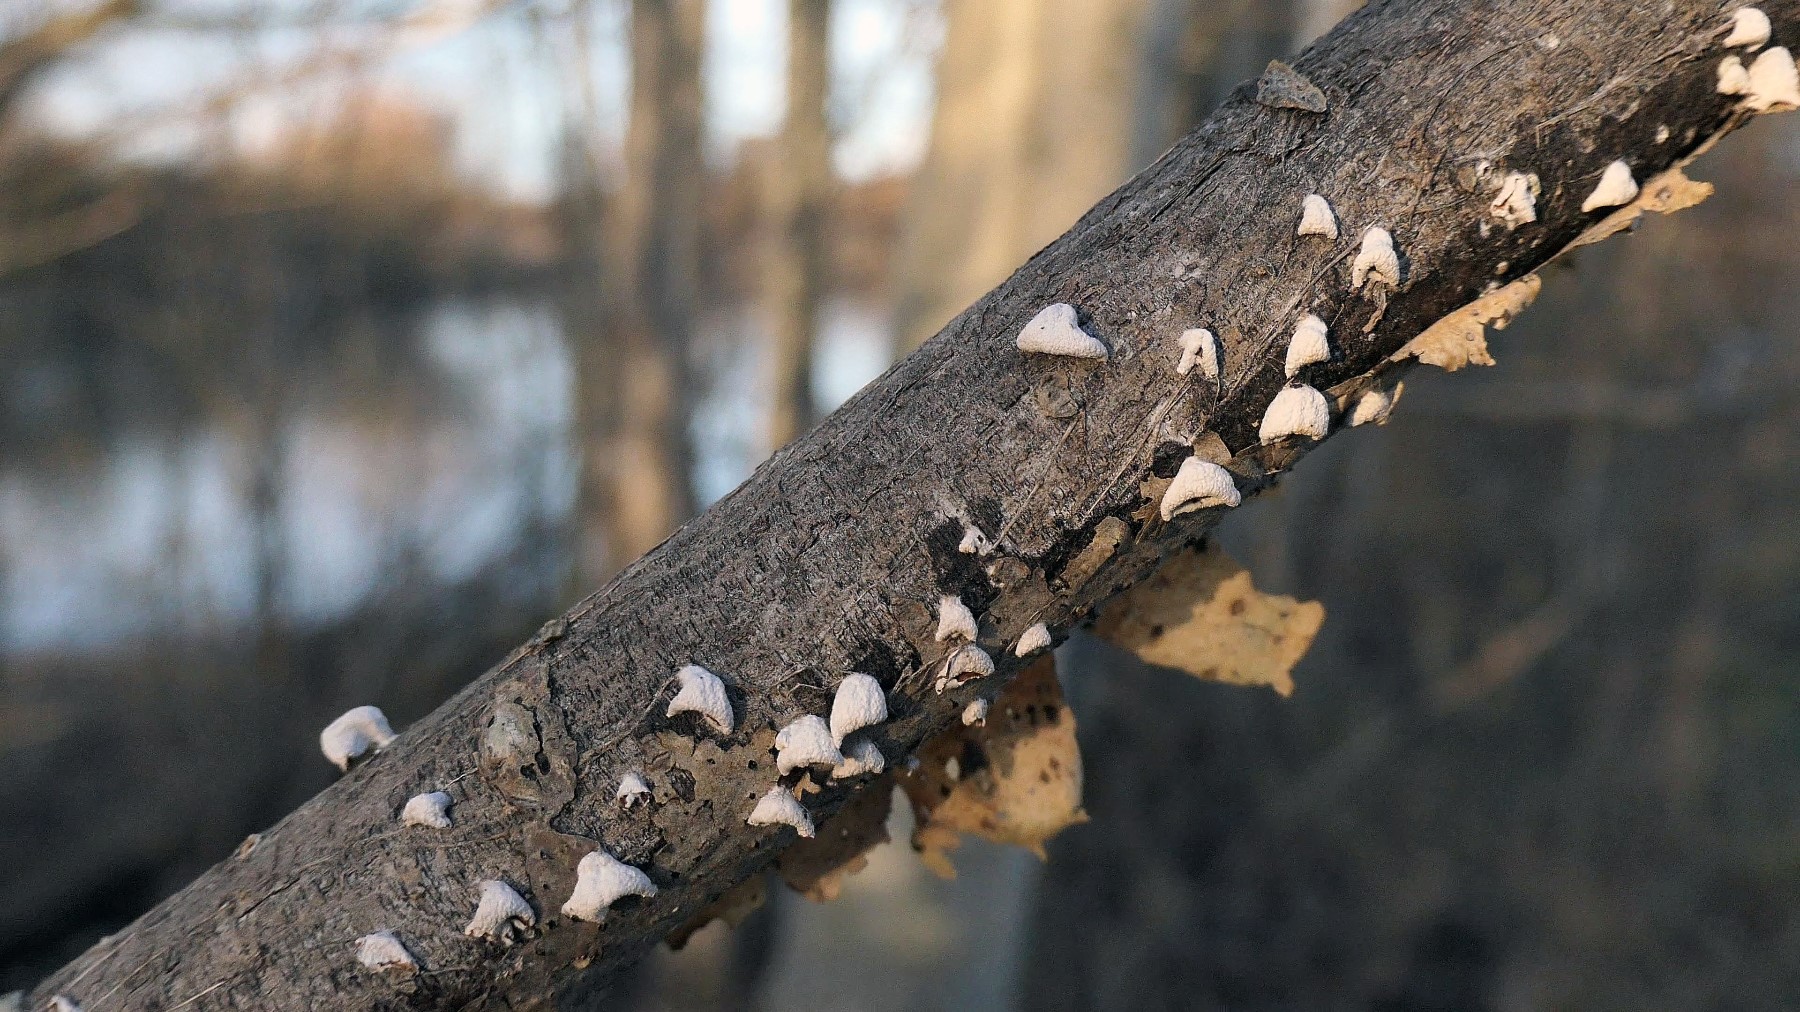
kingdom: Fungi
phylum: Basidiomycota
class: Agaricomycetes
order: Agaricales
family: Schizophyllaceae
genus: Schizophyllum
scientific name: Schizophyllum amplum
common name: poppel-hængeøre
